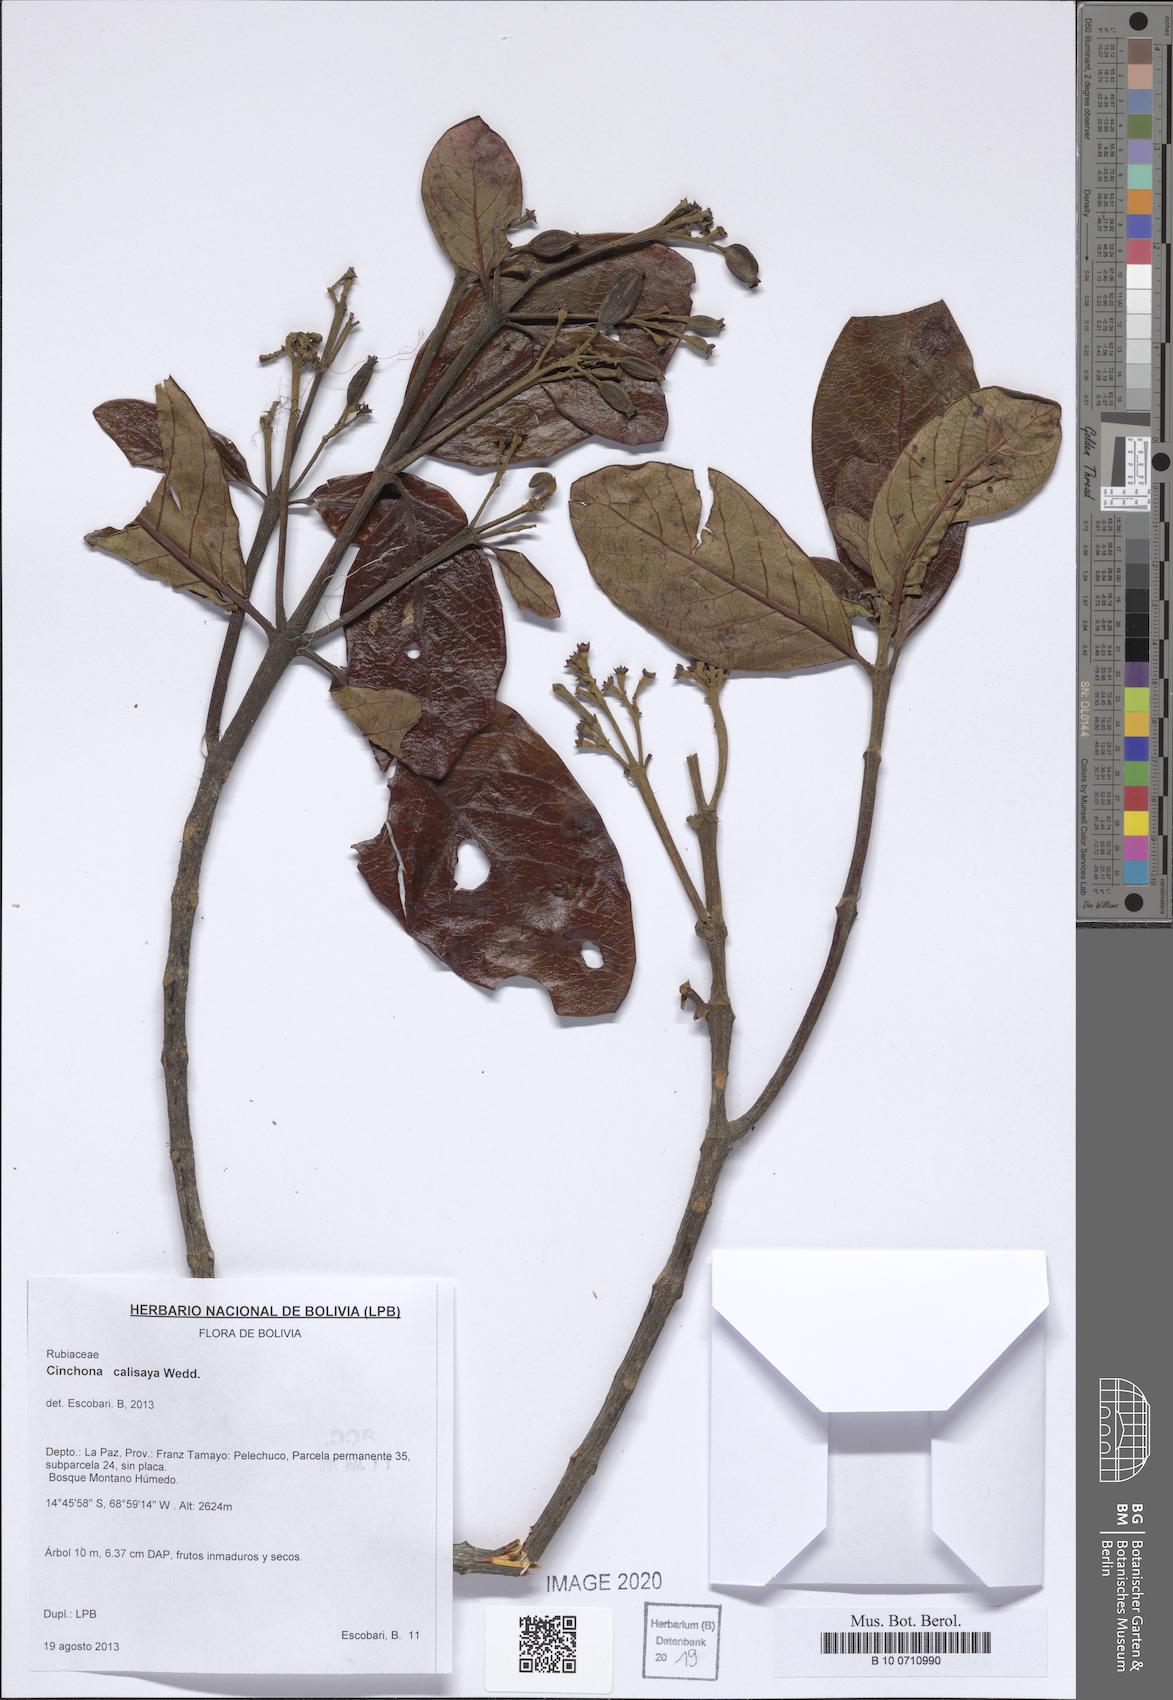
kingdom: Plantae
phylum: Tracheophyta
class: Magnoliopsida
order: Gentianales
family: Rubiaceae
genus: Cinchona
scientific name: Cinchona calisaya
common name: Ledgerbark
